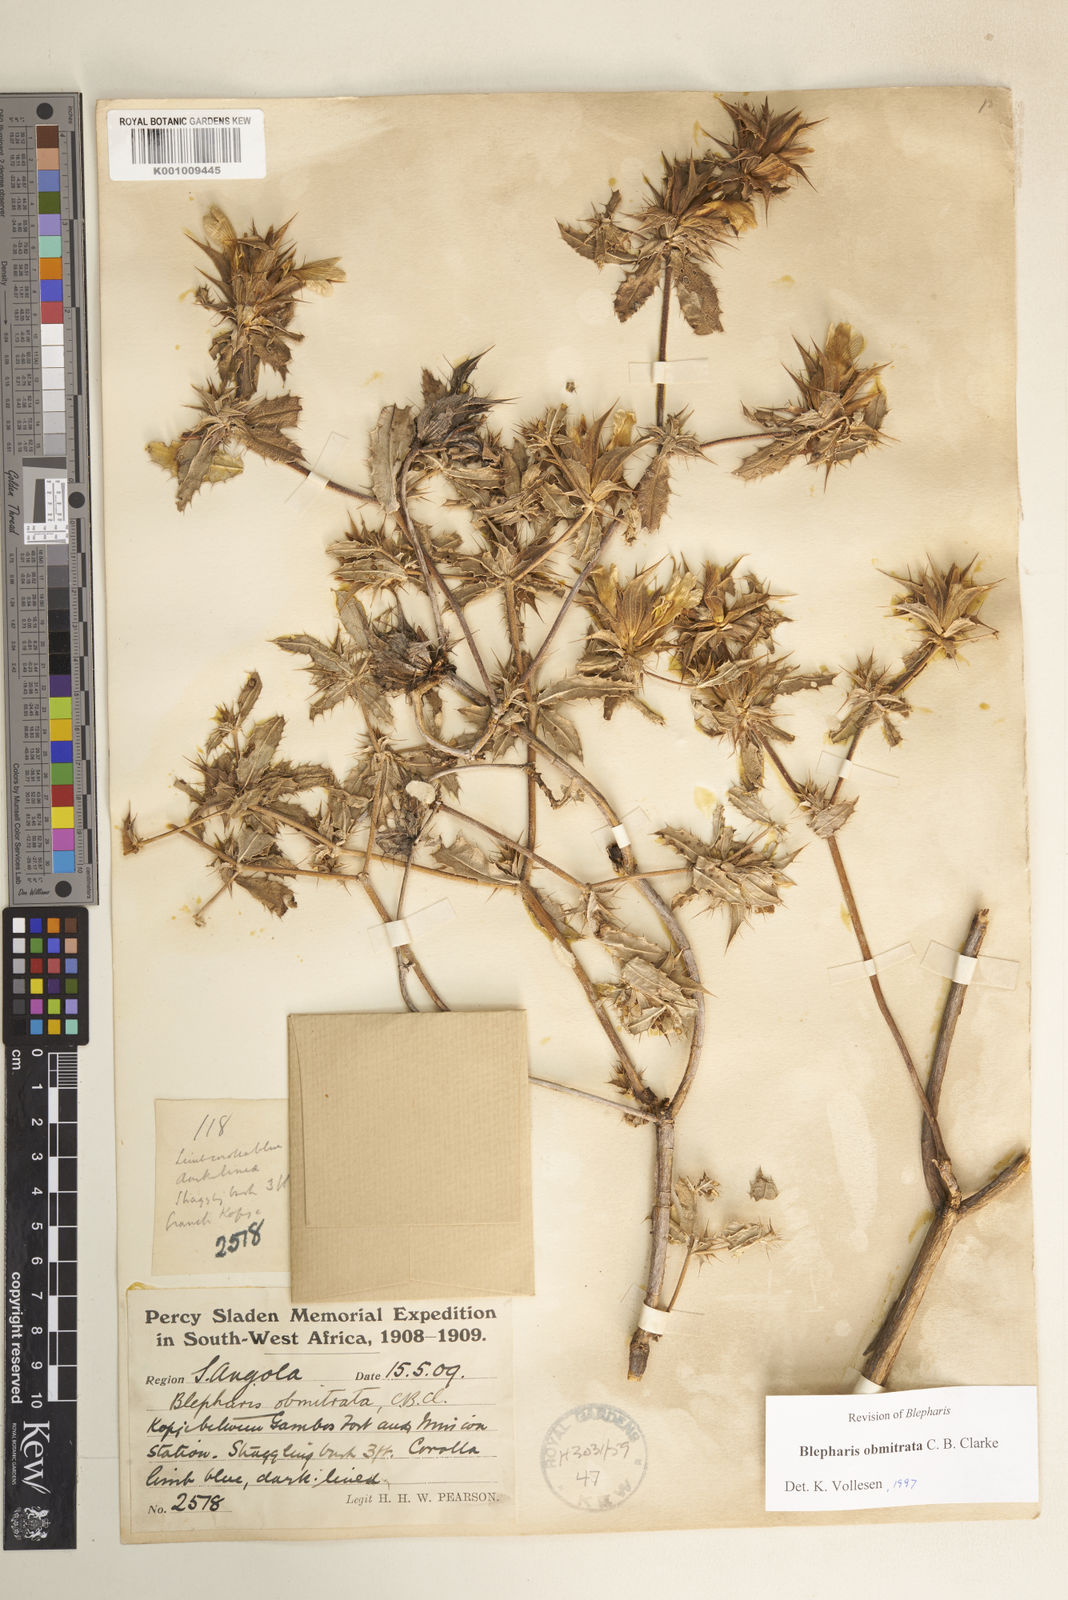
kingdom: Plantae
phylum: Tracheophyta
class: Magnoliopsida
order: Lamiales
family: Acanthaceae
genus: Blepharis
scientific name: Blepharis obmitrata
